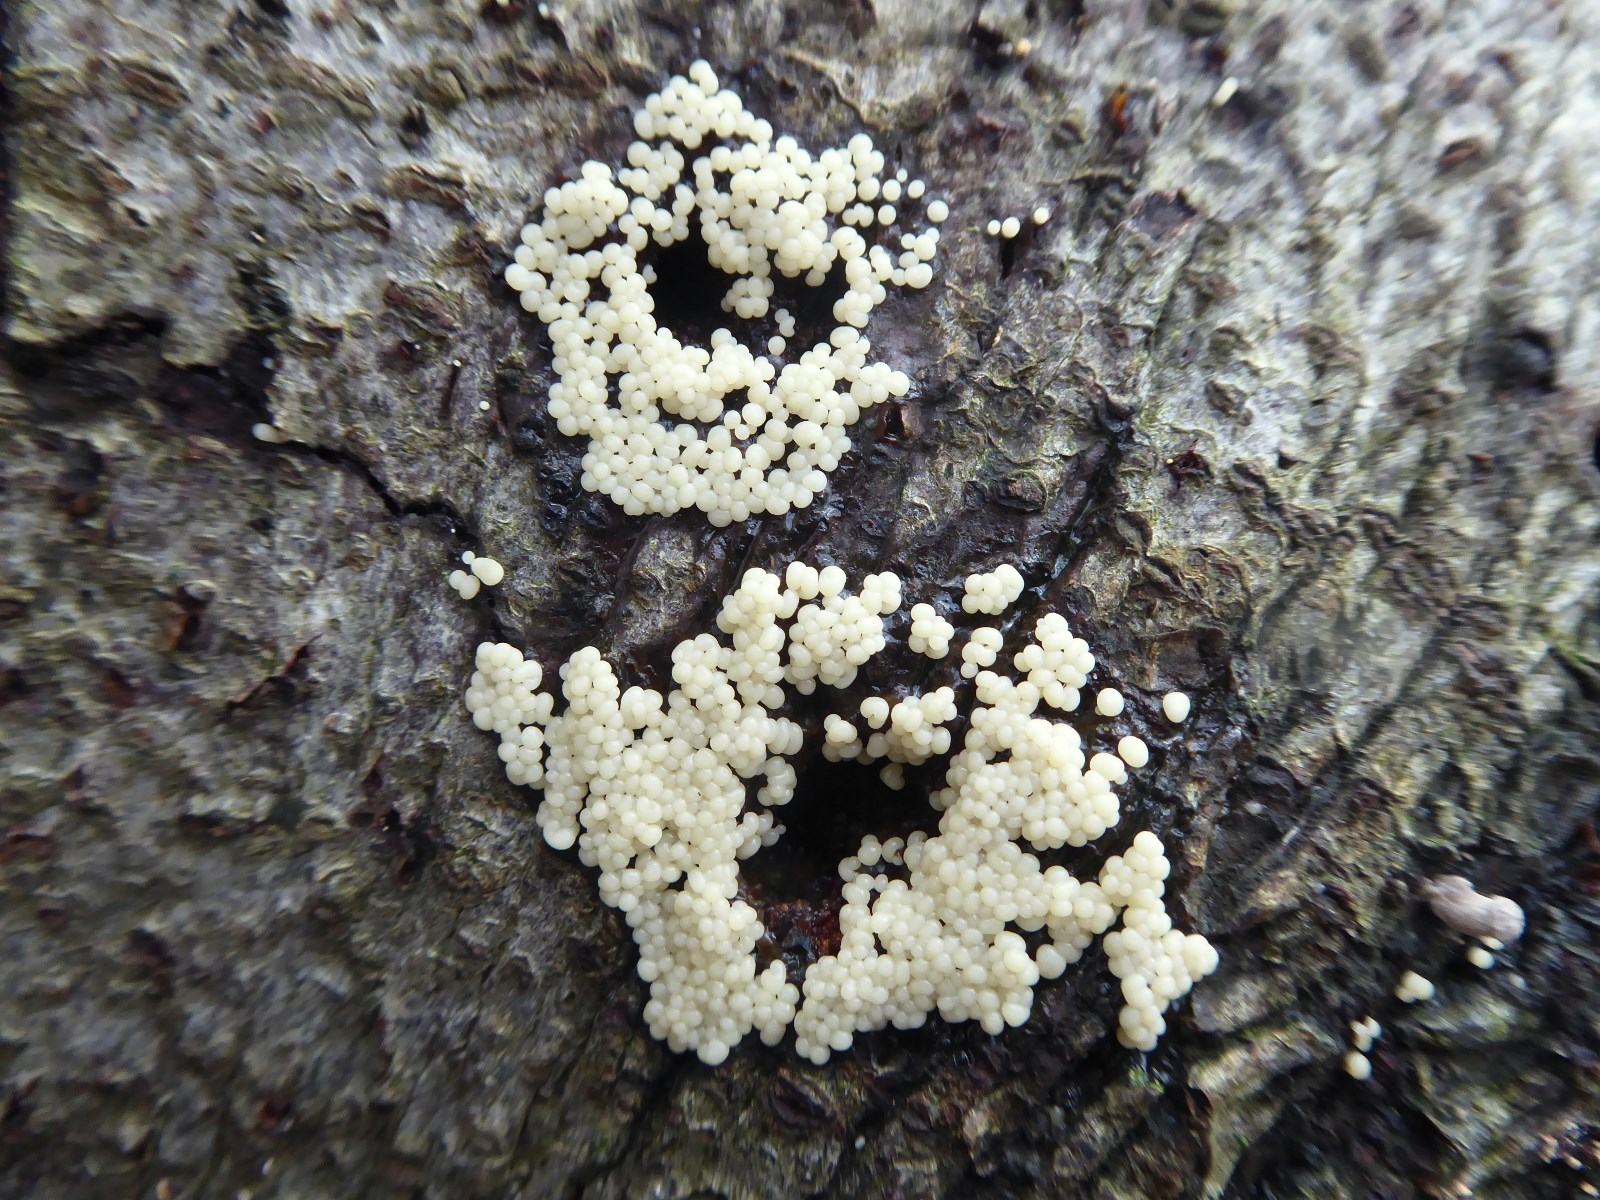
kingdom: Protozoa
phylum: Mycetozoa
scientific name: Mycetozoa
